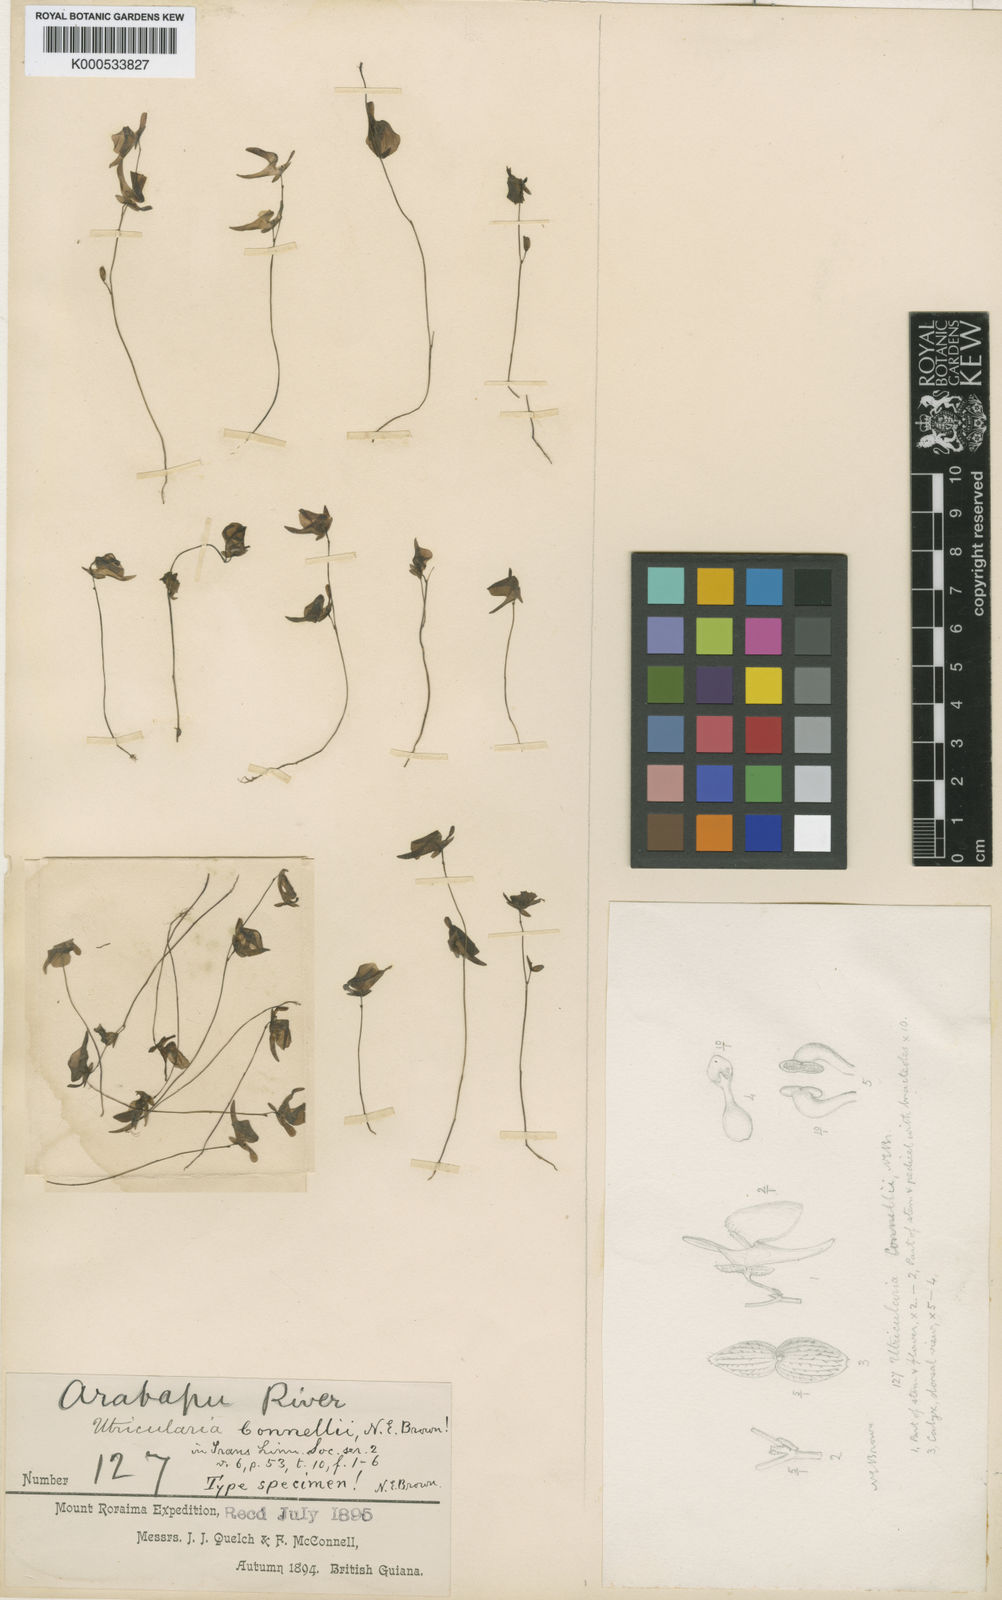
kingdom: Plantae
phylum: Tracheophyta
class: Magnoliopsida
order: Lamiales
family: Lentibulariaceae
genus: Utricularia
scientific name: Utricularia pubescens
